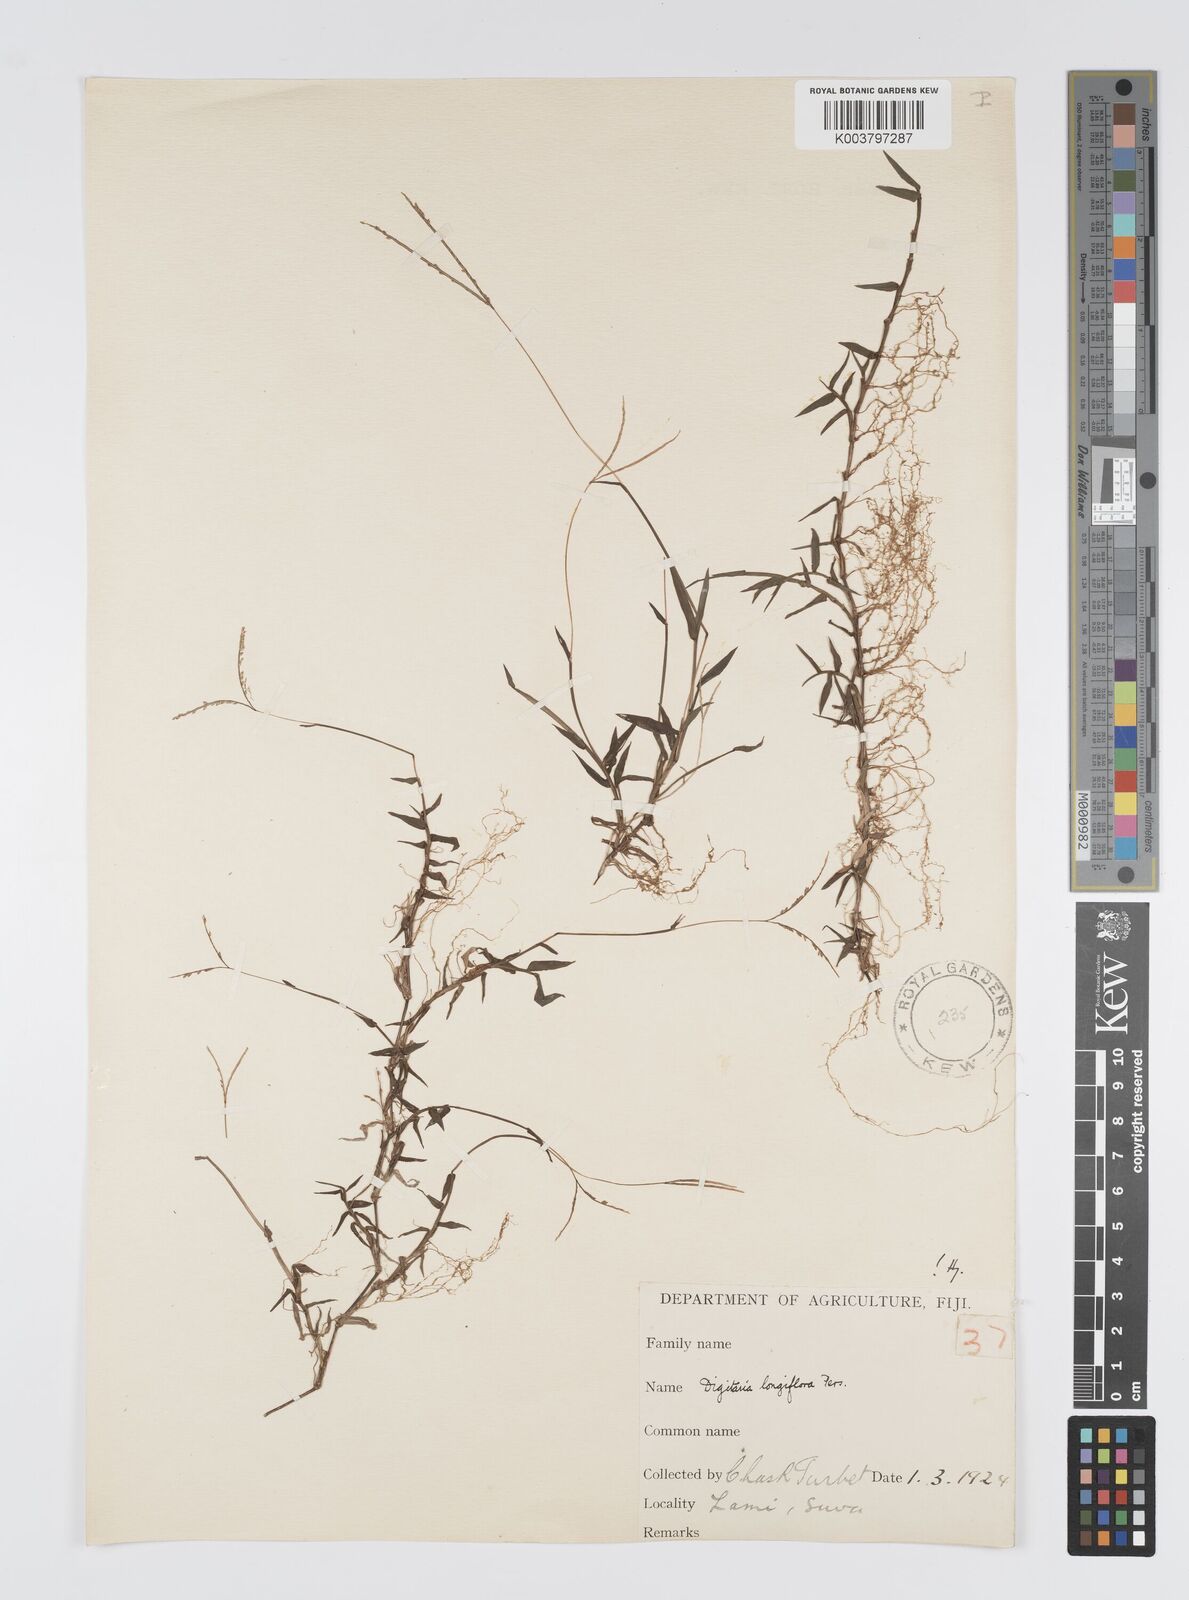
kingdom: Plantae
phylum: Tracheophyta
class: Liliopsida
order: Poales
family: Poaceae
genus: Digitaria
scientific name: Digitaria fuscescens
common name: Yellow crabgrass
